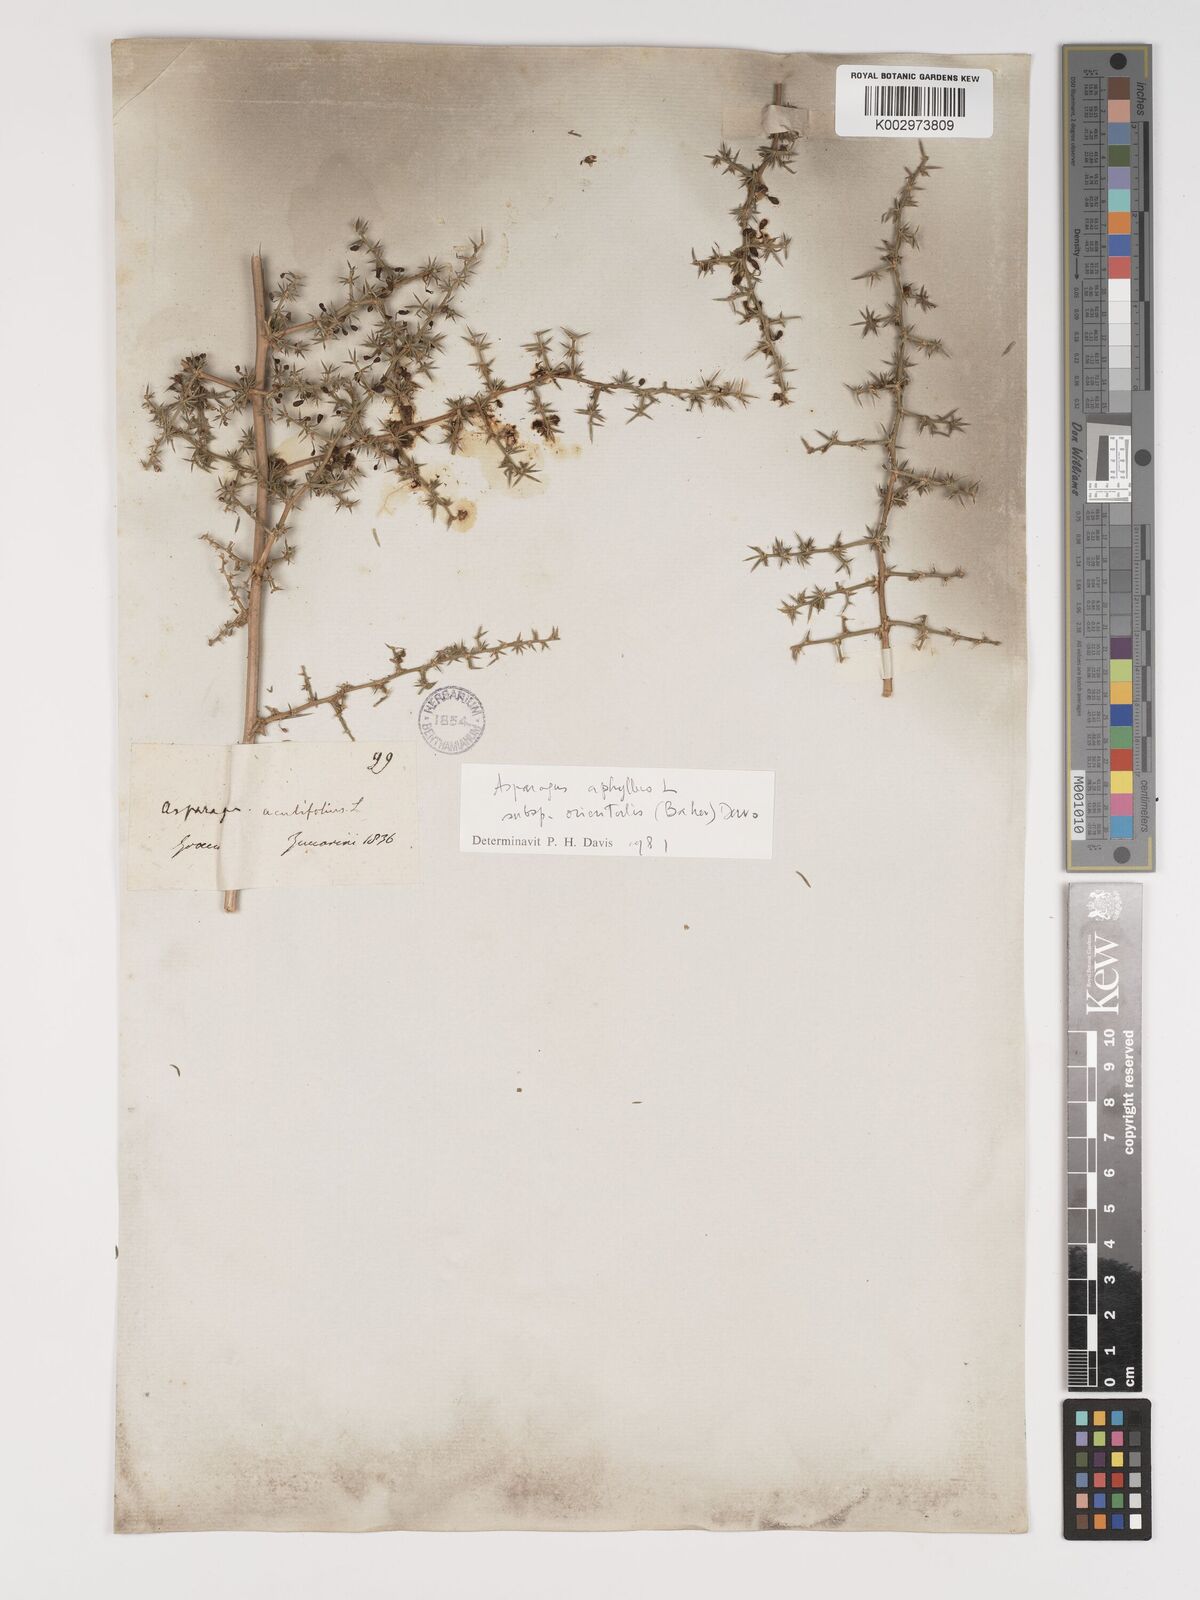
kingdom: Plantae
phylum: Tracheophyta
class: Liliopsida
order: Asparagales
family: Asparagaceae
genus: Asparagus
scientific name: Asparagus aphyllus
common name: Mediterranean asparagus
